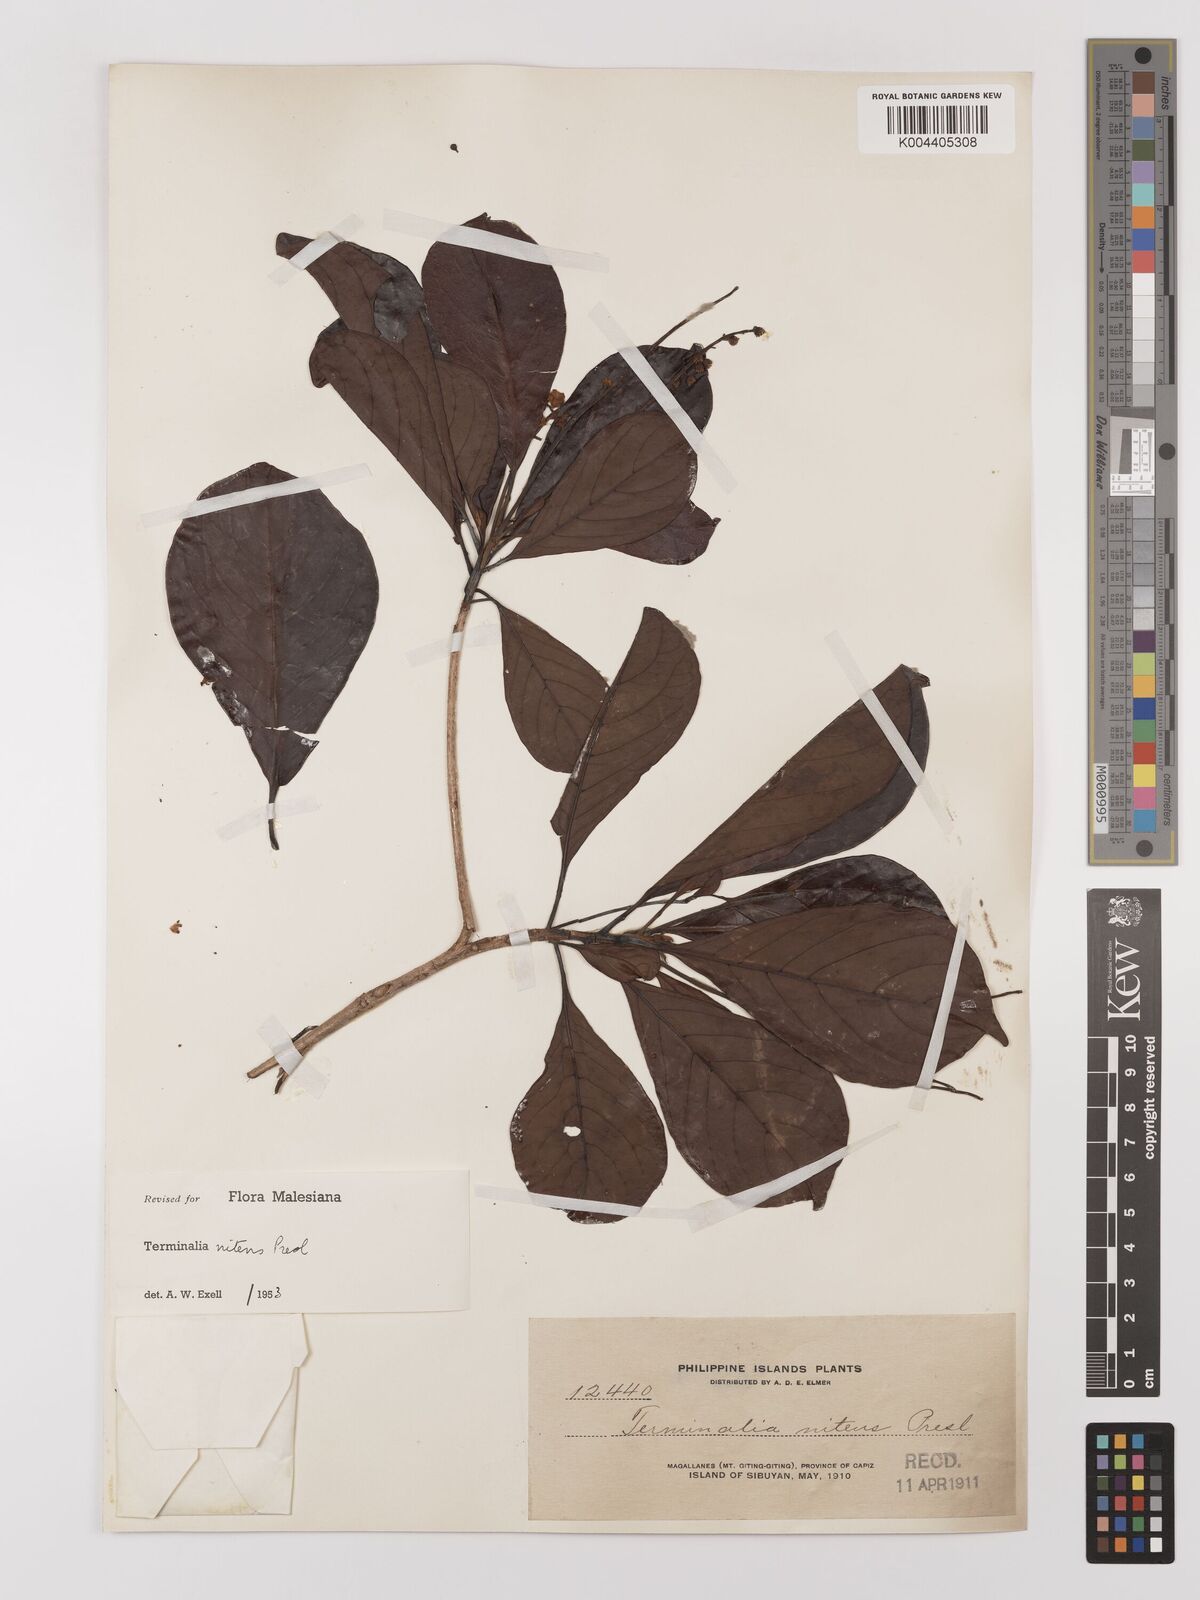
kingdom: Plantae
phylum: Tracheophyta
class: Magnoliopsida
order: Myrtales
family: Combretaceae
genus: Terminalia
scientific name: Terminalia nitens
